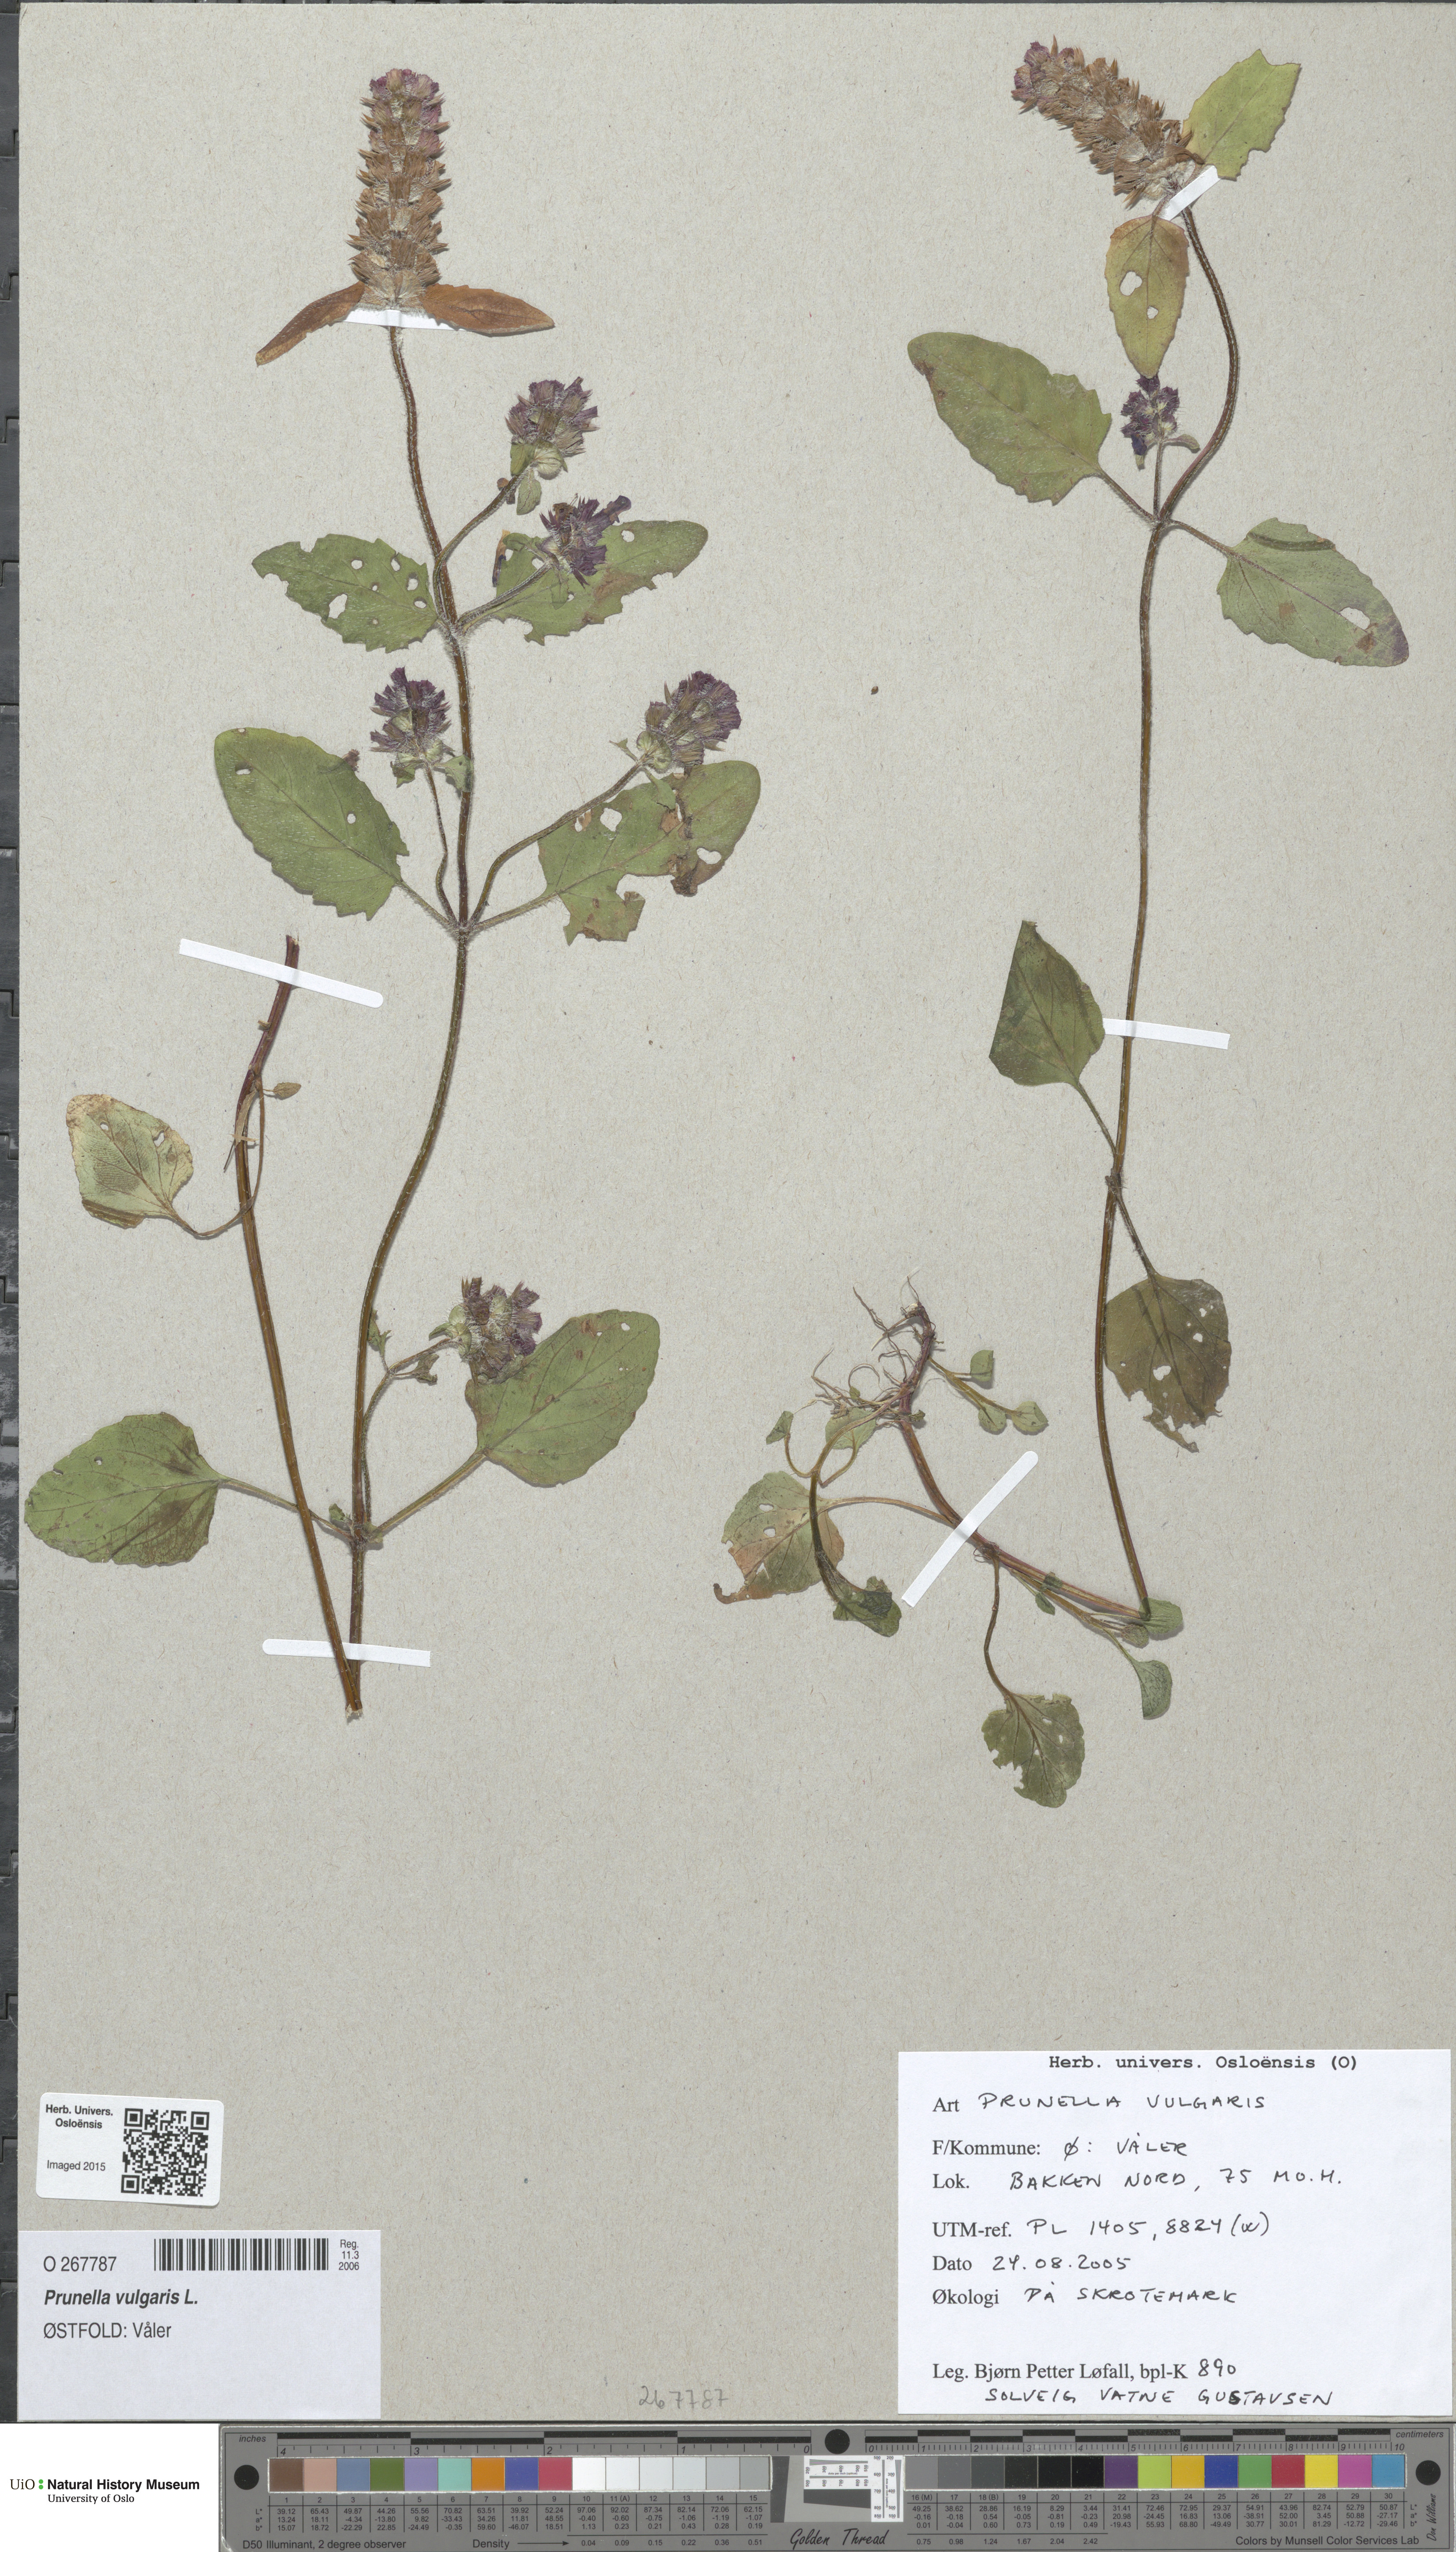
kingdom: Plantae
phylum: Tracheophyta
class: Magnoliopsida
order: Lamiales
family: Lamiaceae
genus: Prunella
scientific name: Prunella vulgaris
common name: Heal-all
